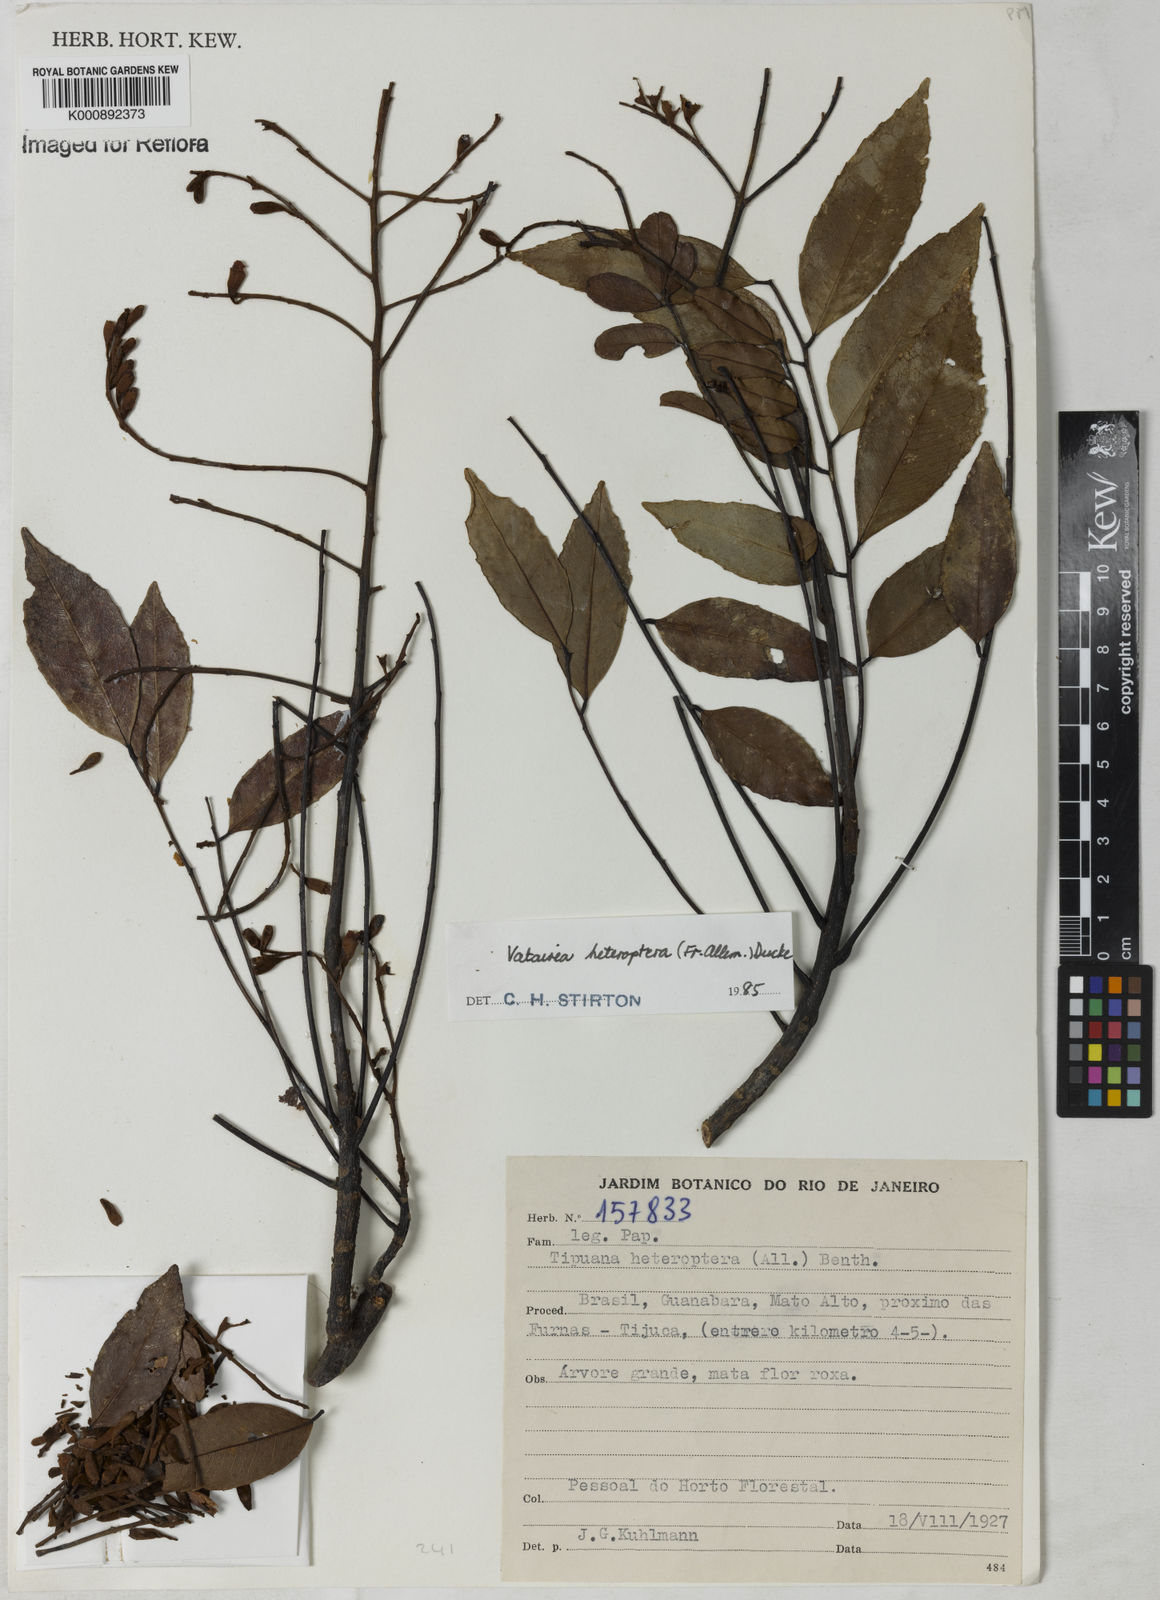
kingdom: Plantae
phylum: Tracheophyta
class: Magnoliopsida
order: Fabales
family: Fabaceae
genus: Vatairea
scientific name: Vatairea
